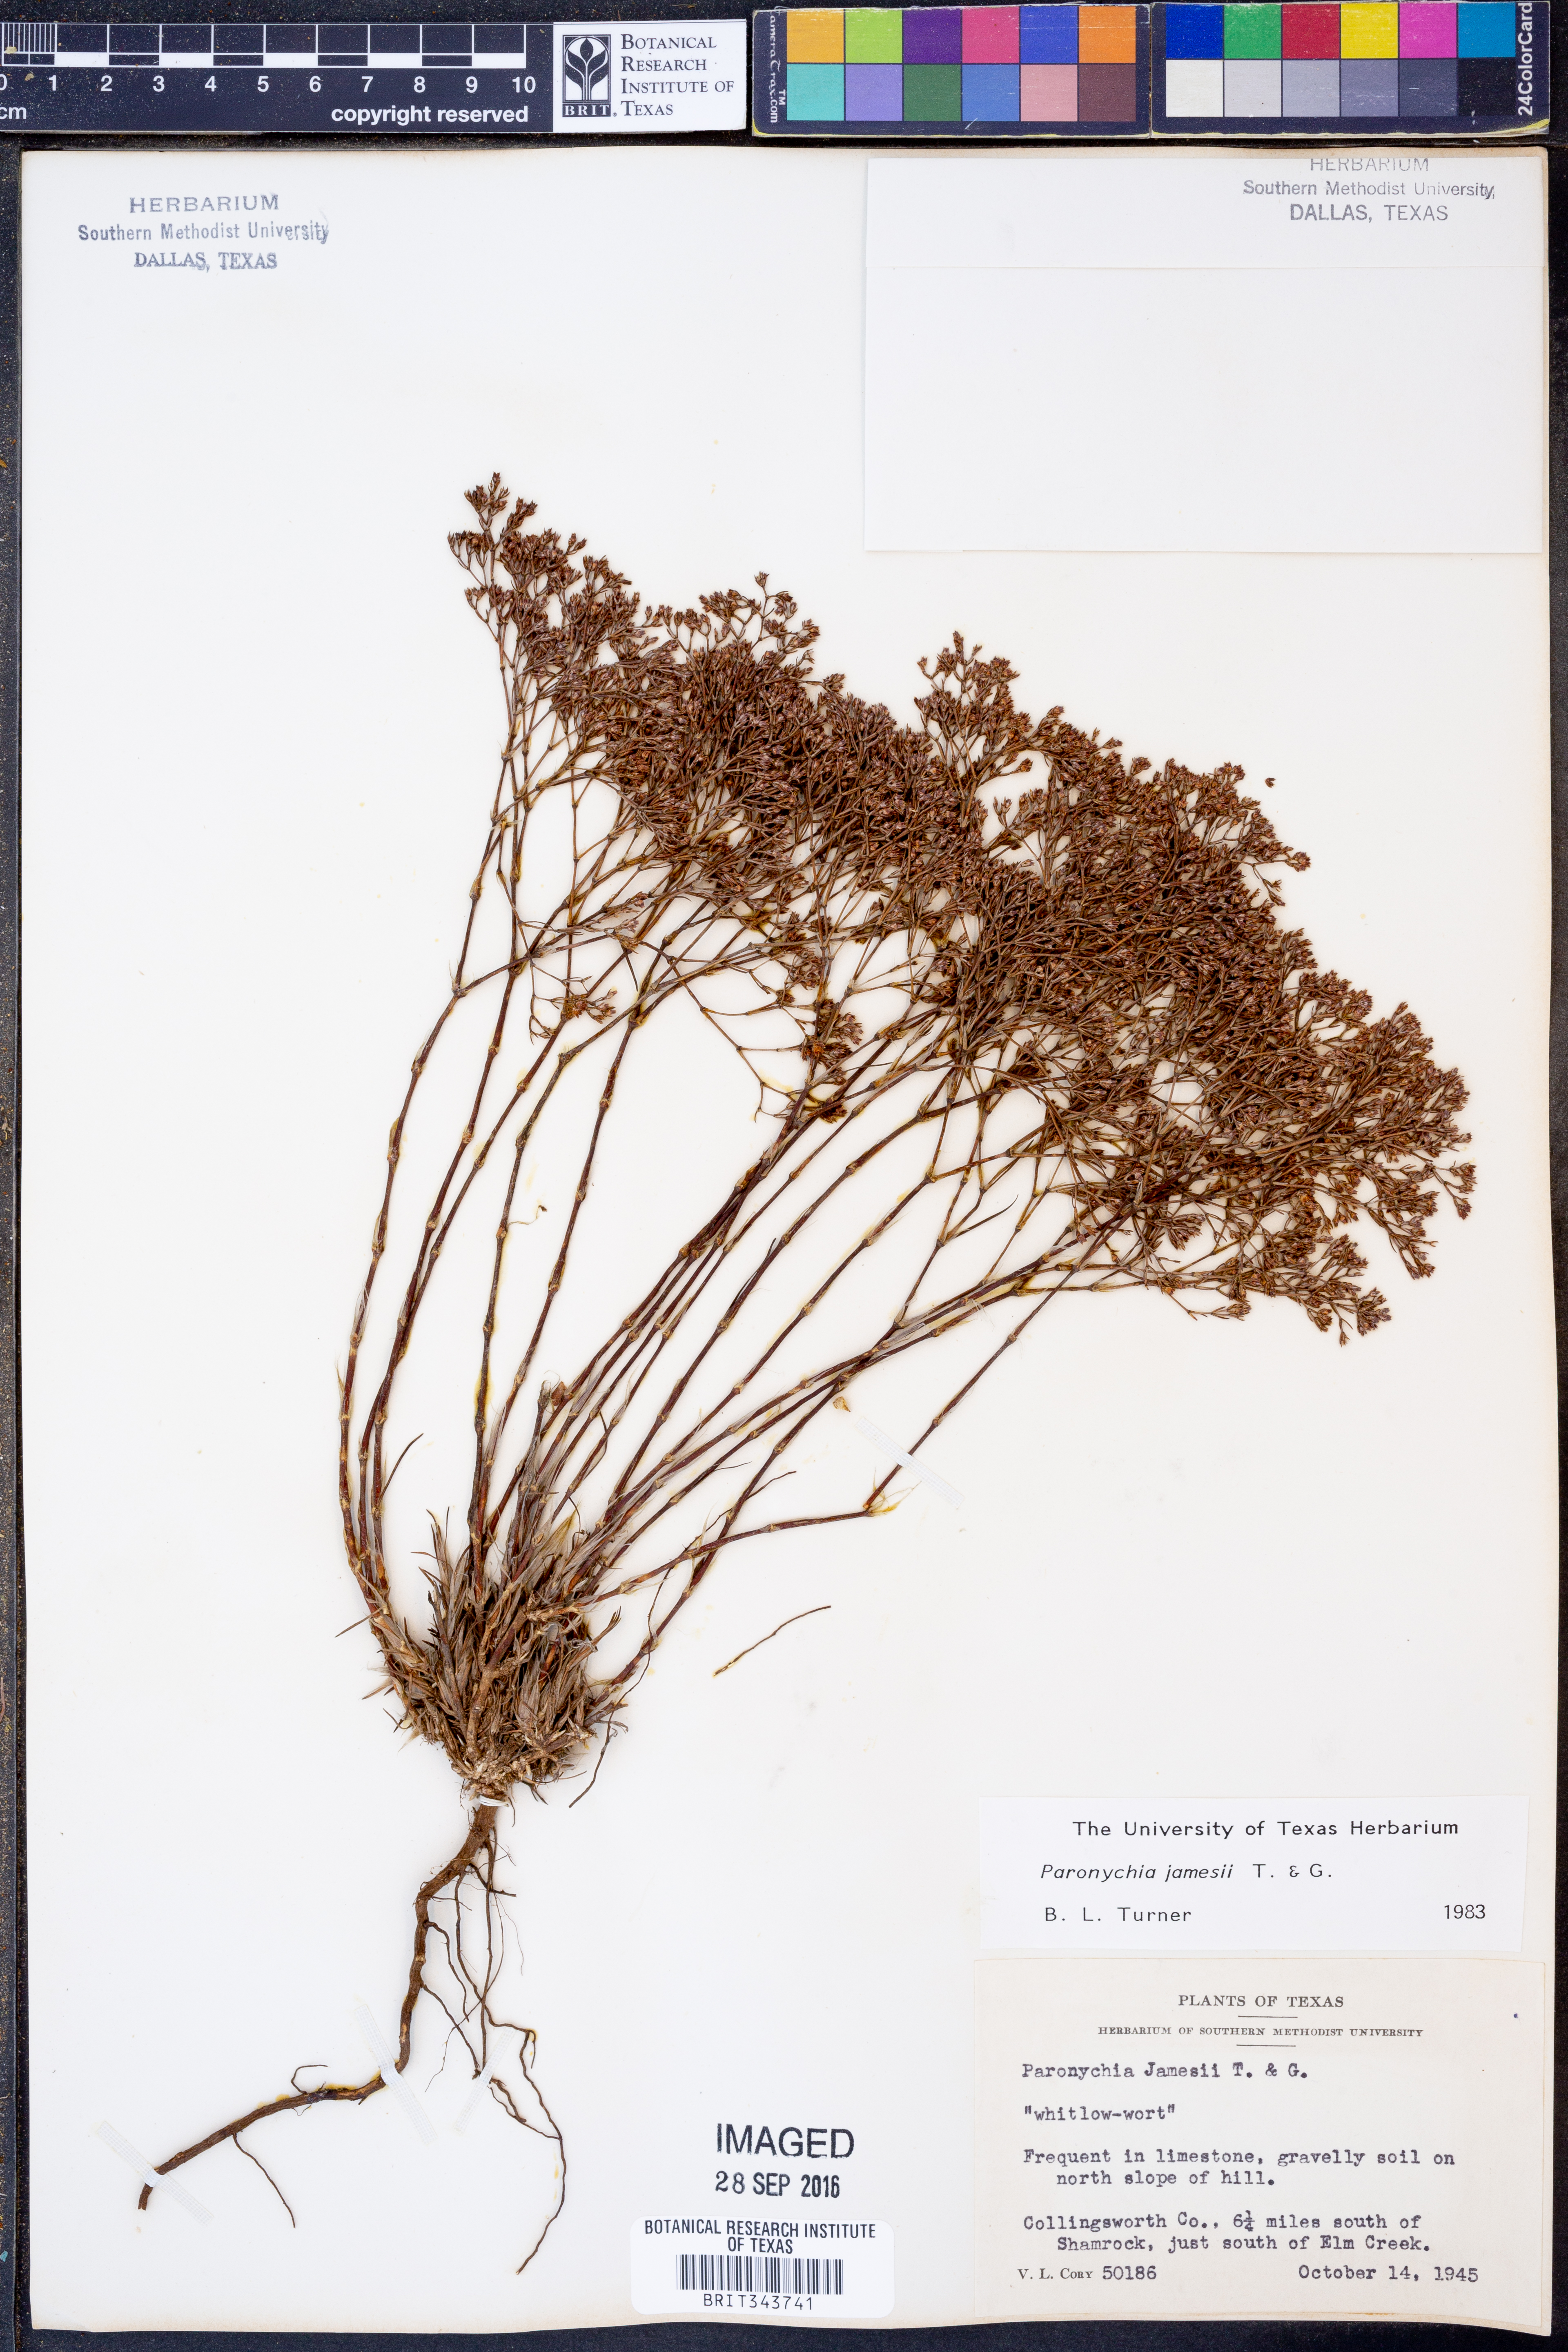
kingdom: Plantae
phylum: Tracheophyta
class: Magnoliopsida
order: Caryophyllales
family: Caryophyllaceae
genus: Paronychia
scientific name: Paronychia jamesii
